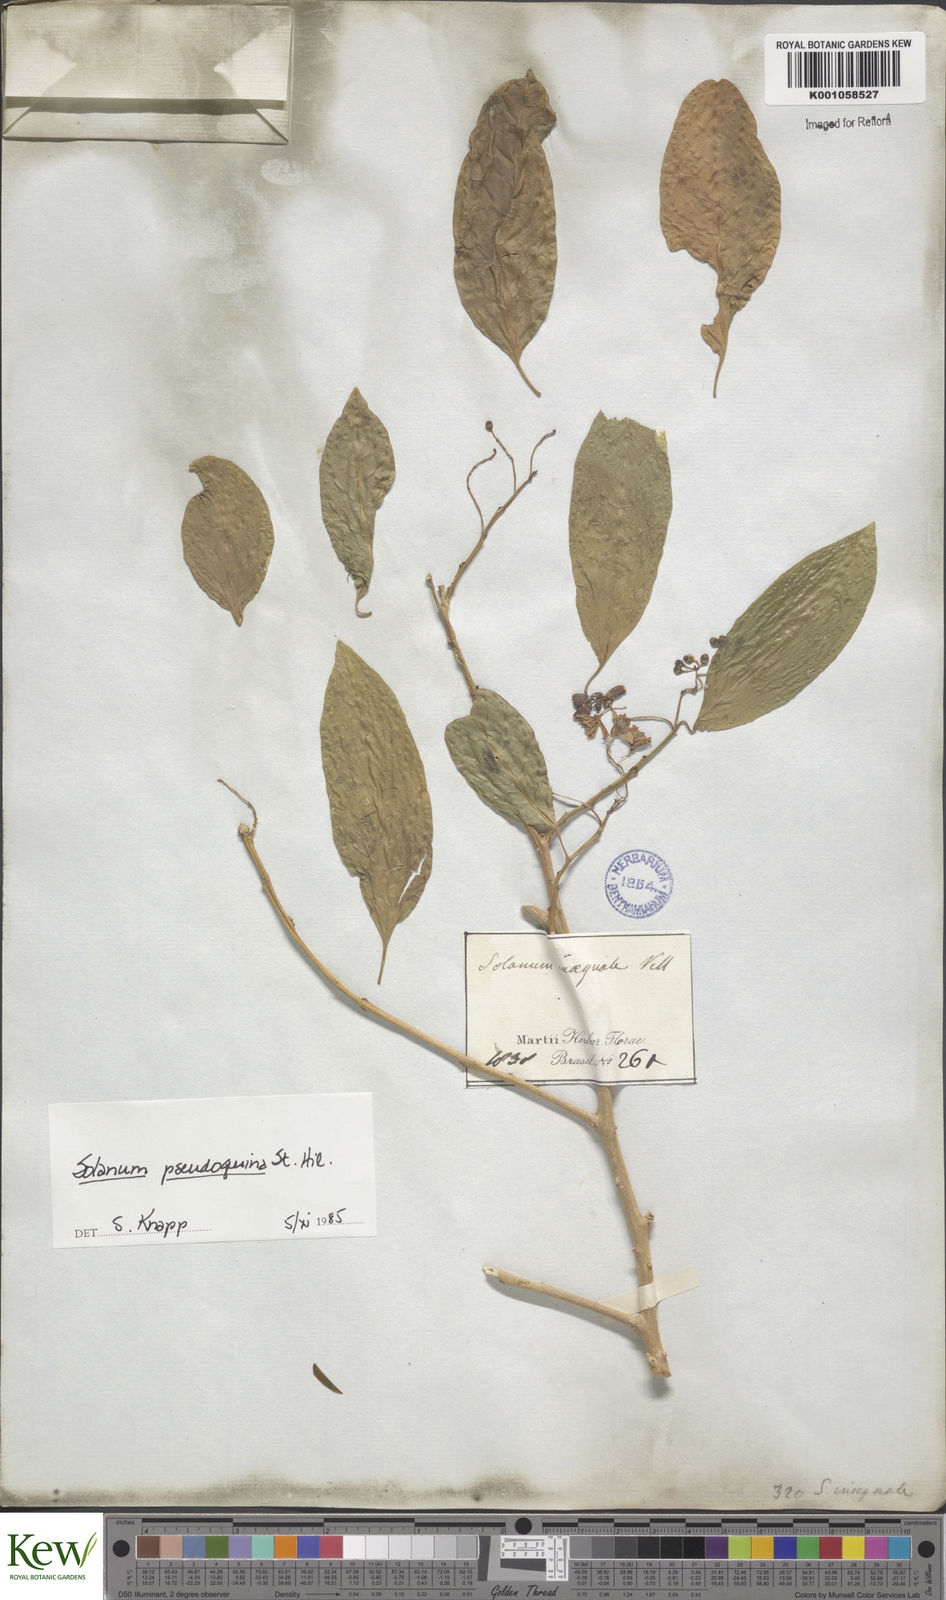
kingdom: Plantae
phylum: Tracheophyta
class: Magnoliopsida
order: Solanales
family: Solanaceae
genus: Solanum
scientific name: Solanum pseudoquina
